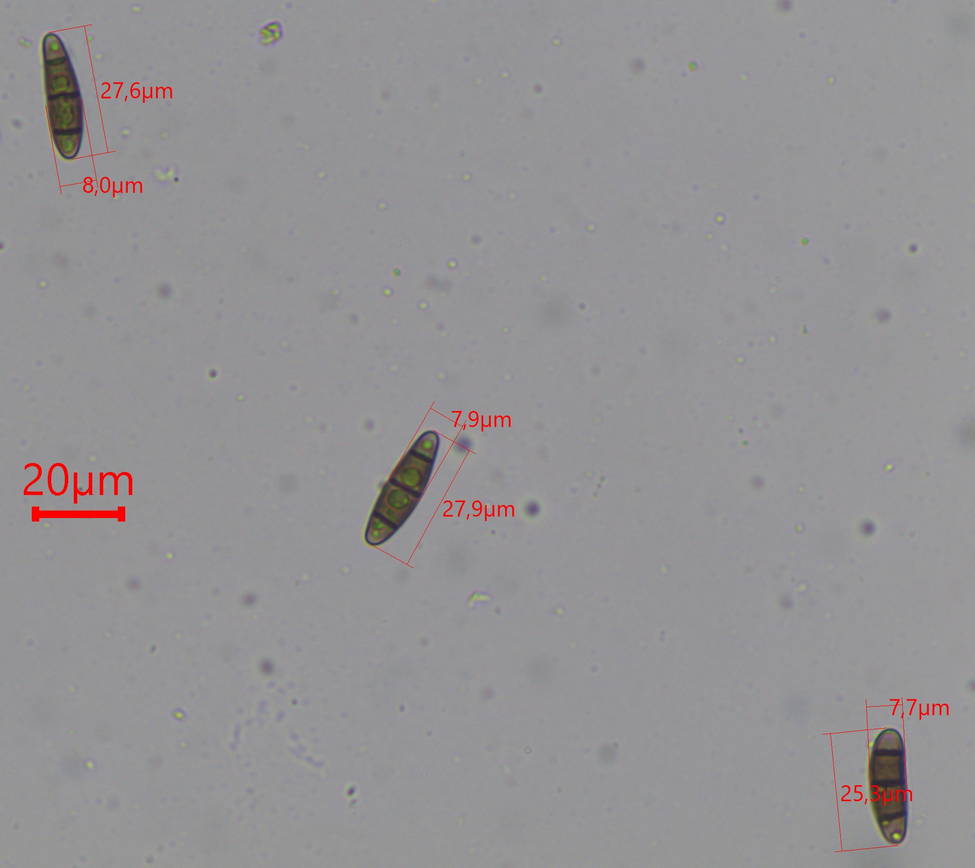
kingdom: Fungi
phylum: Ascomycota
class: Dothideomycetes
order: Hysteriales
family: Hysteriaceae
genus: Hysterium
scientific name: Hysterium acuminatum
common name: almindelig kulmund
